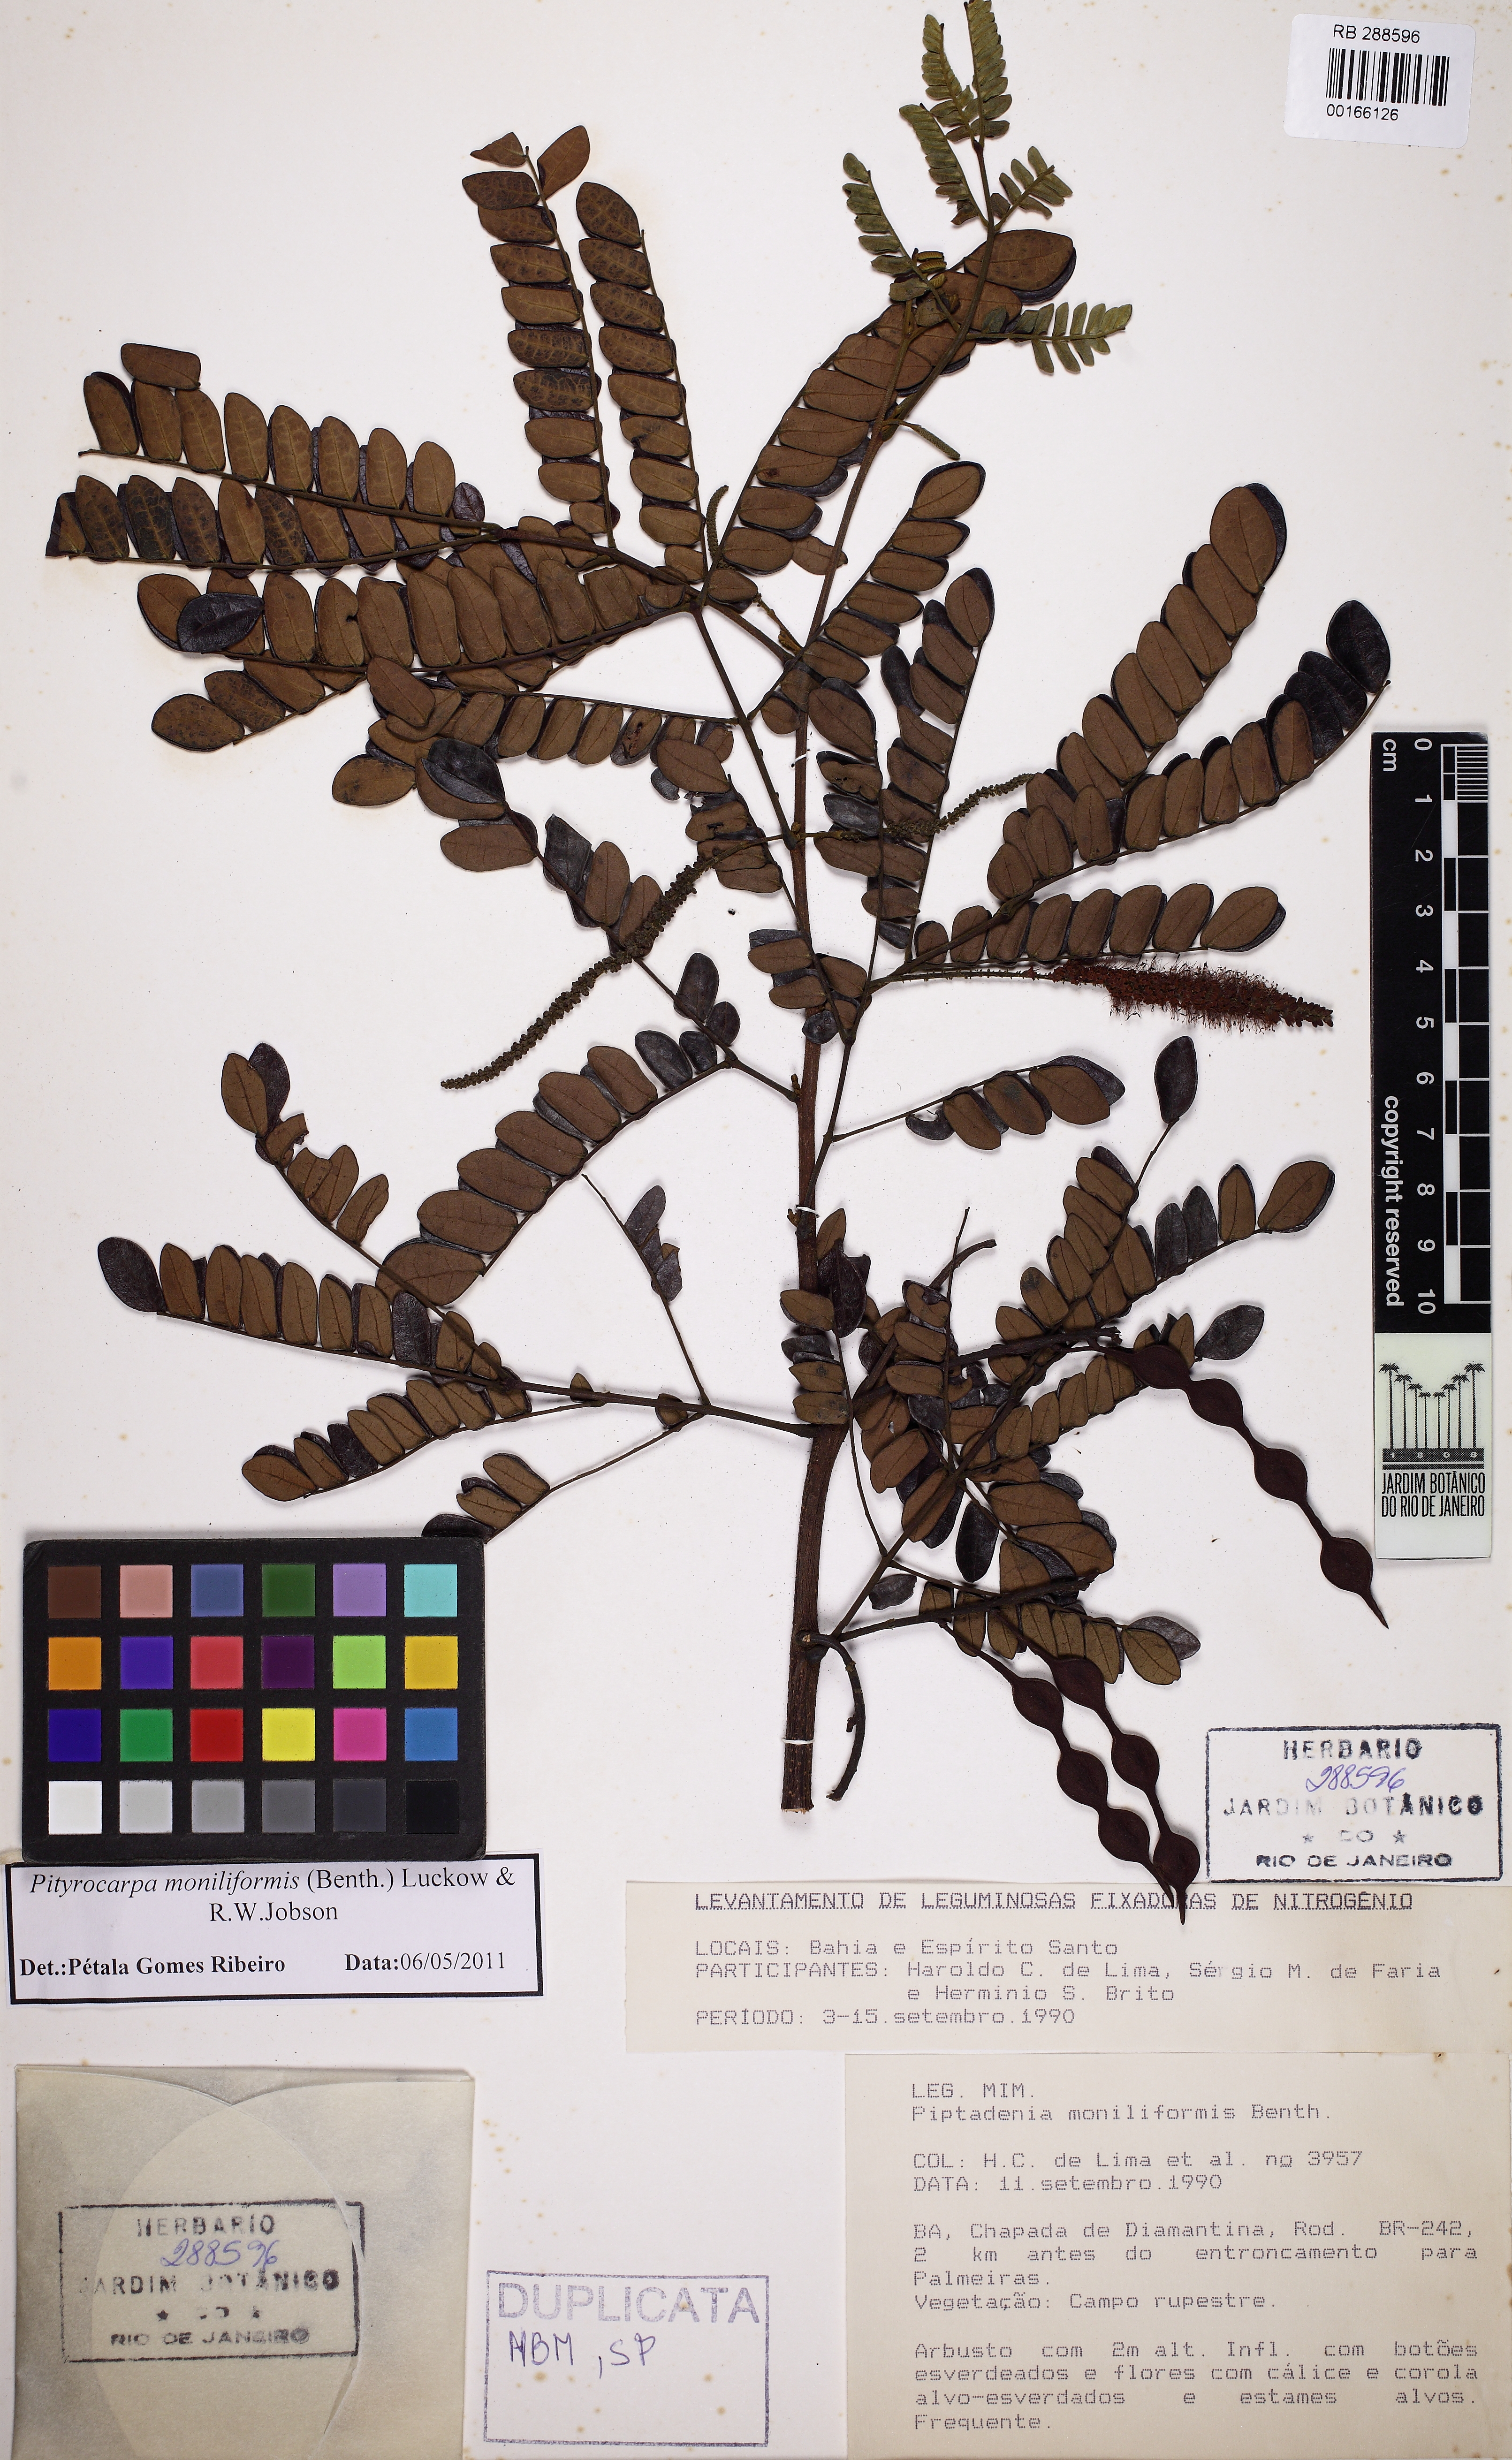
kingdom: Plantae
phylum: Tracheophyta
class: Magnoliopsida
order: Fabales
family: Fabaceae
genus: Pityrocarpa
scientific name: Pityrocarpa moniliformis
